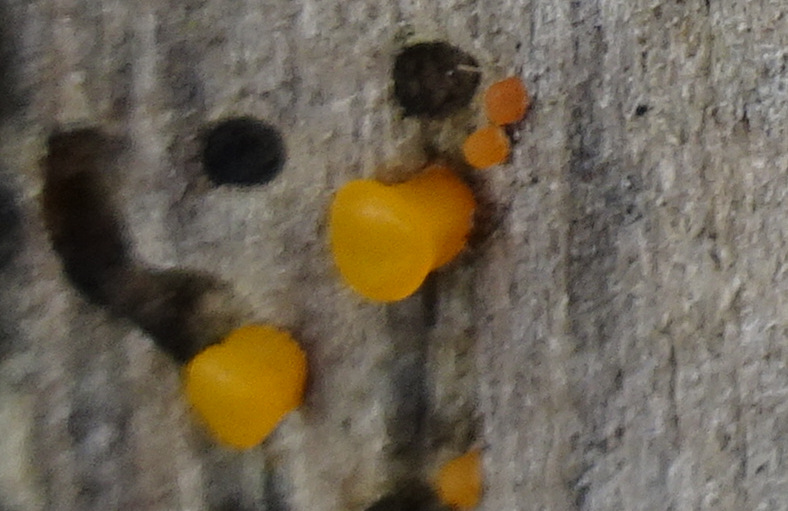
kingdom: Fungi
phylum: Basidiomycota
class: Dacrymycetes
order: Dacrymycetales
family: Dacrymycetaceae
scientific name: Dacrymycetaceae
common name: tåresvampfamilien
